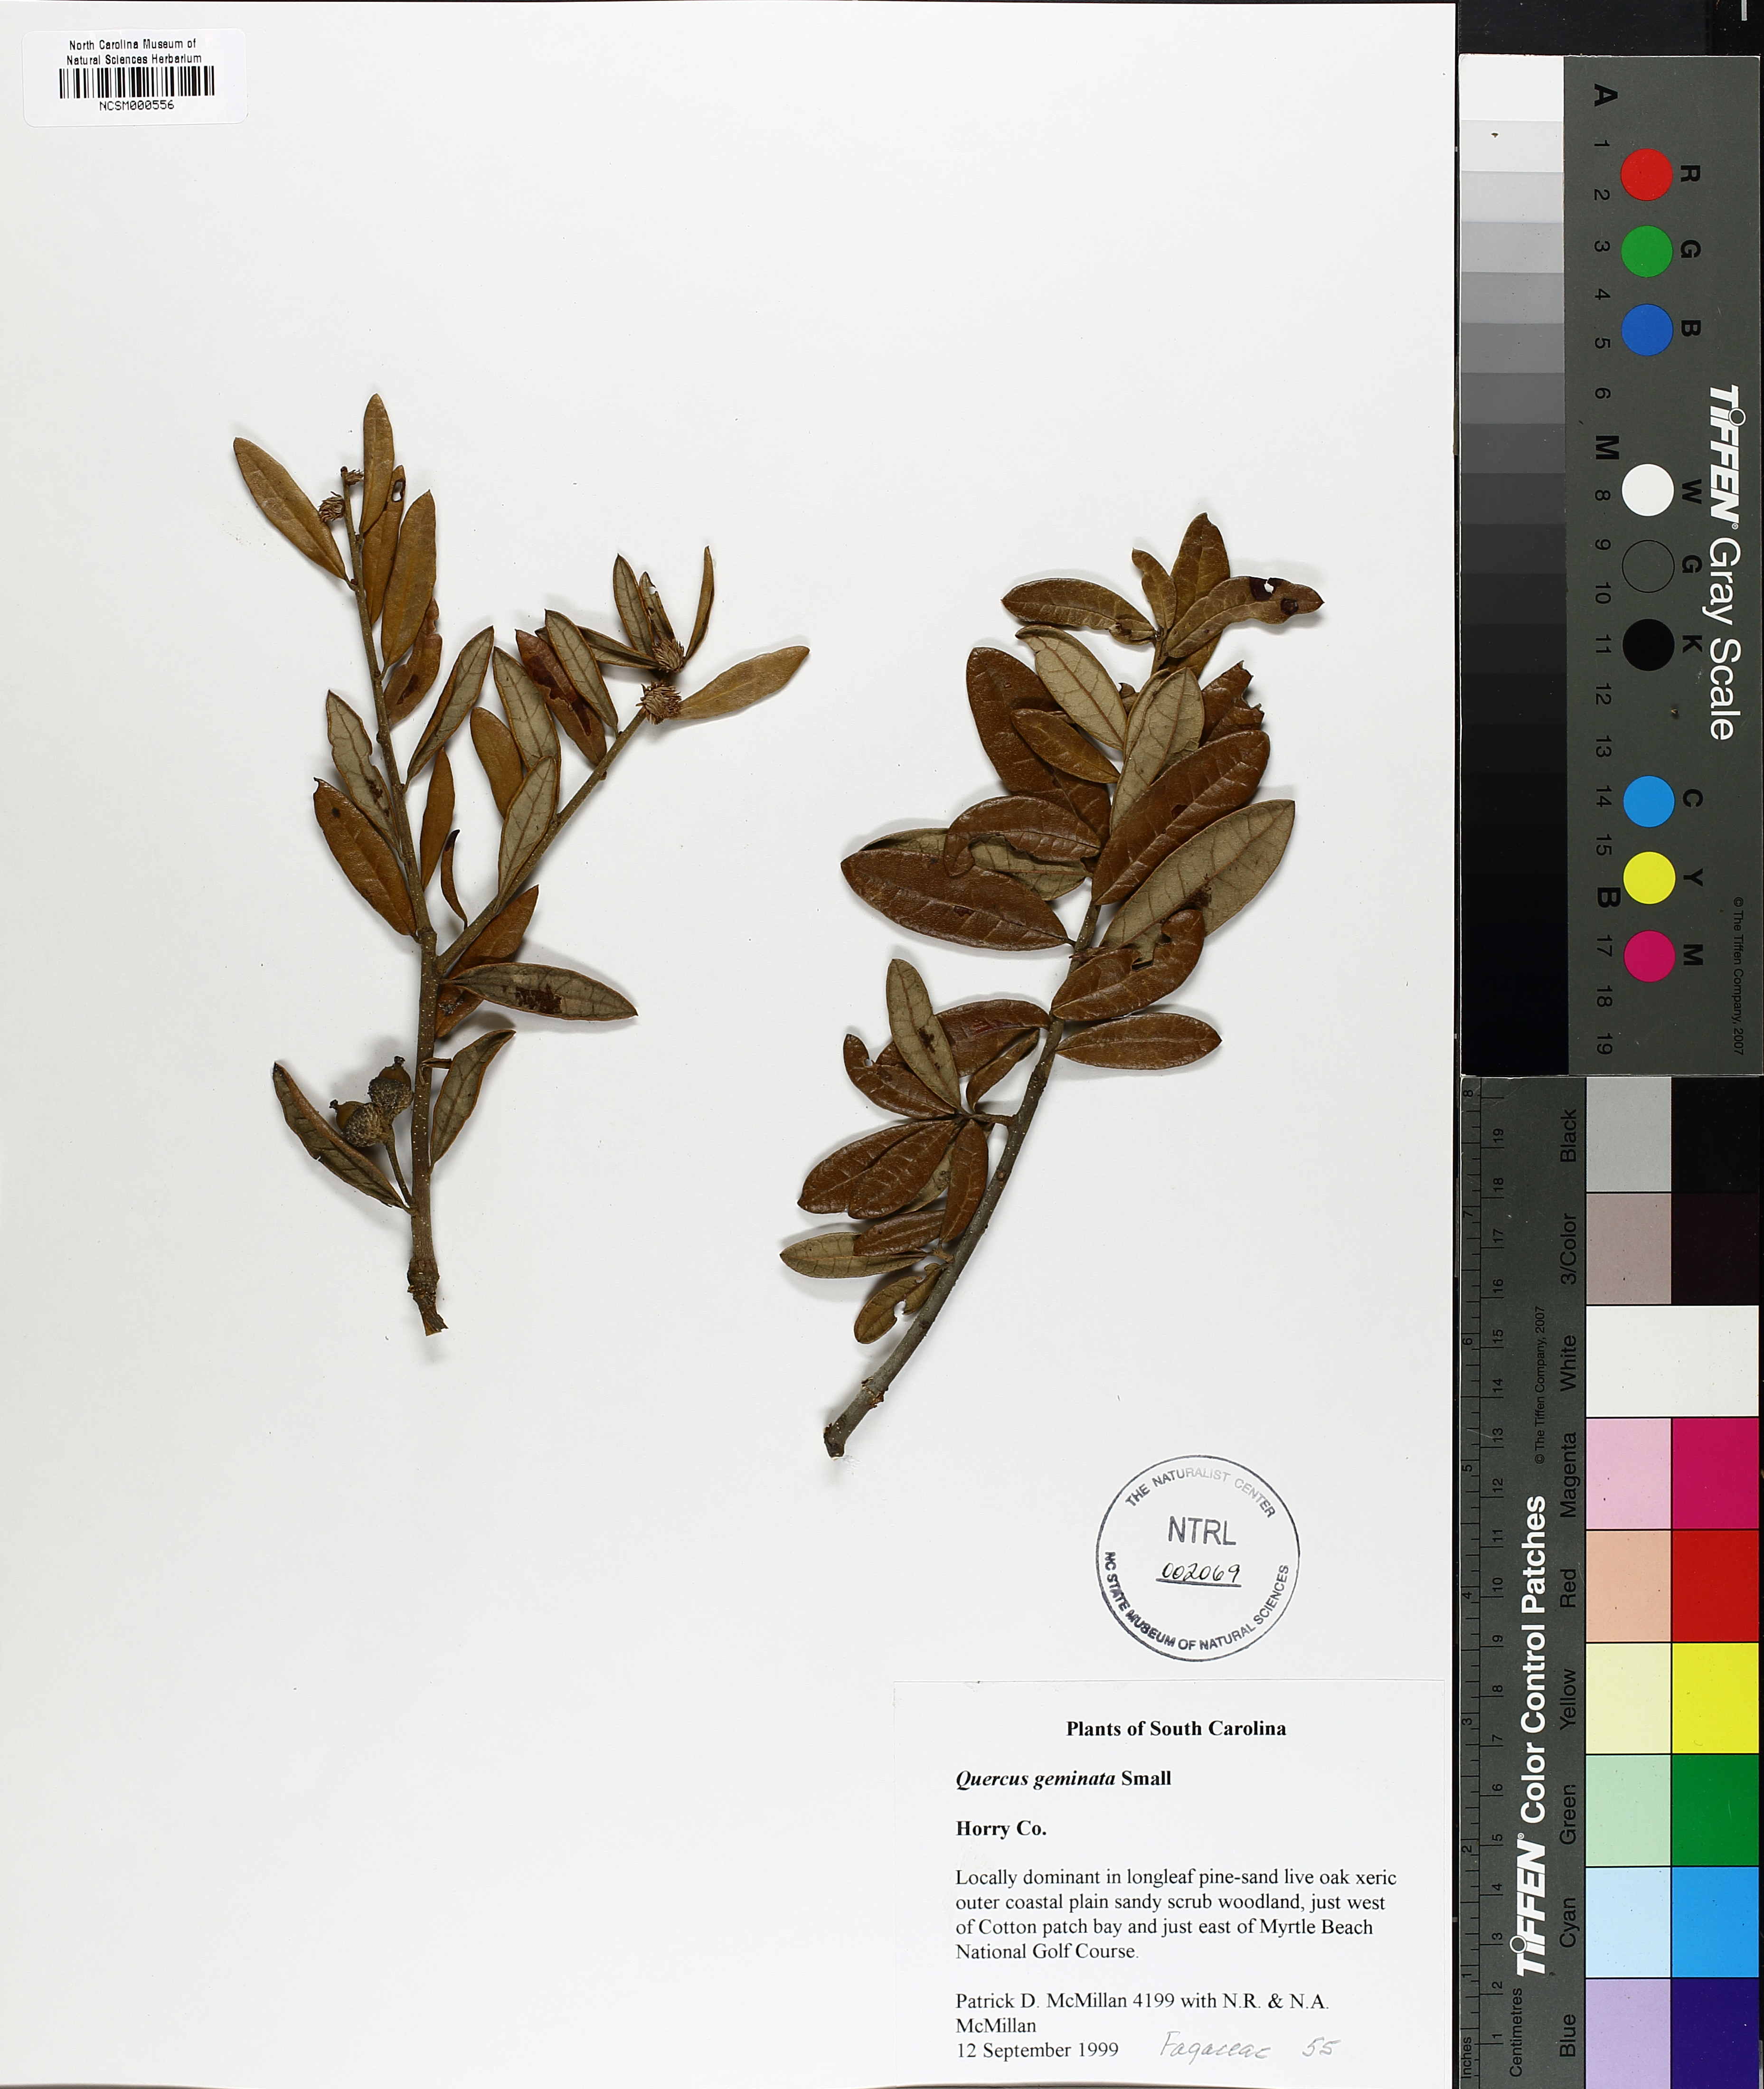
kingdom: Plantae
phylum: Tracheophyta
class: Magnoliopsida
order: Fagales
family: Fagaceae
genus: Quercus
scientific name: Quercus geminata
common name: Sand live oak
